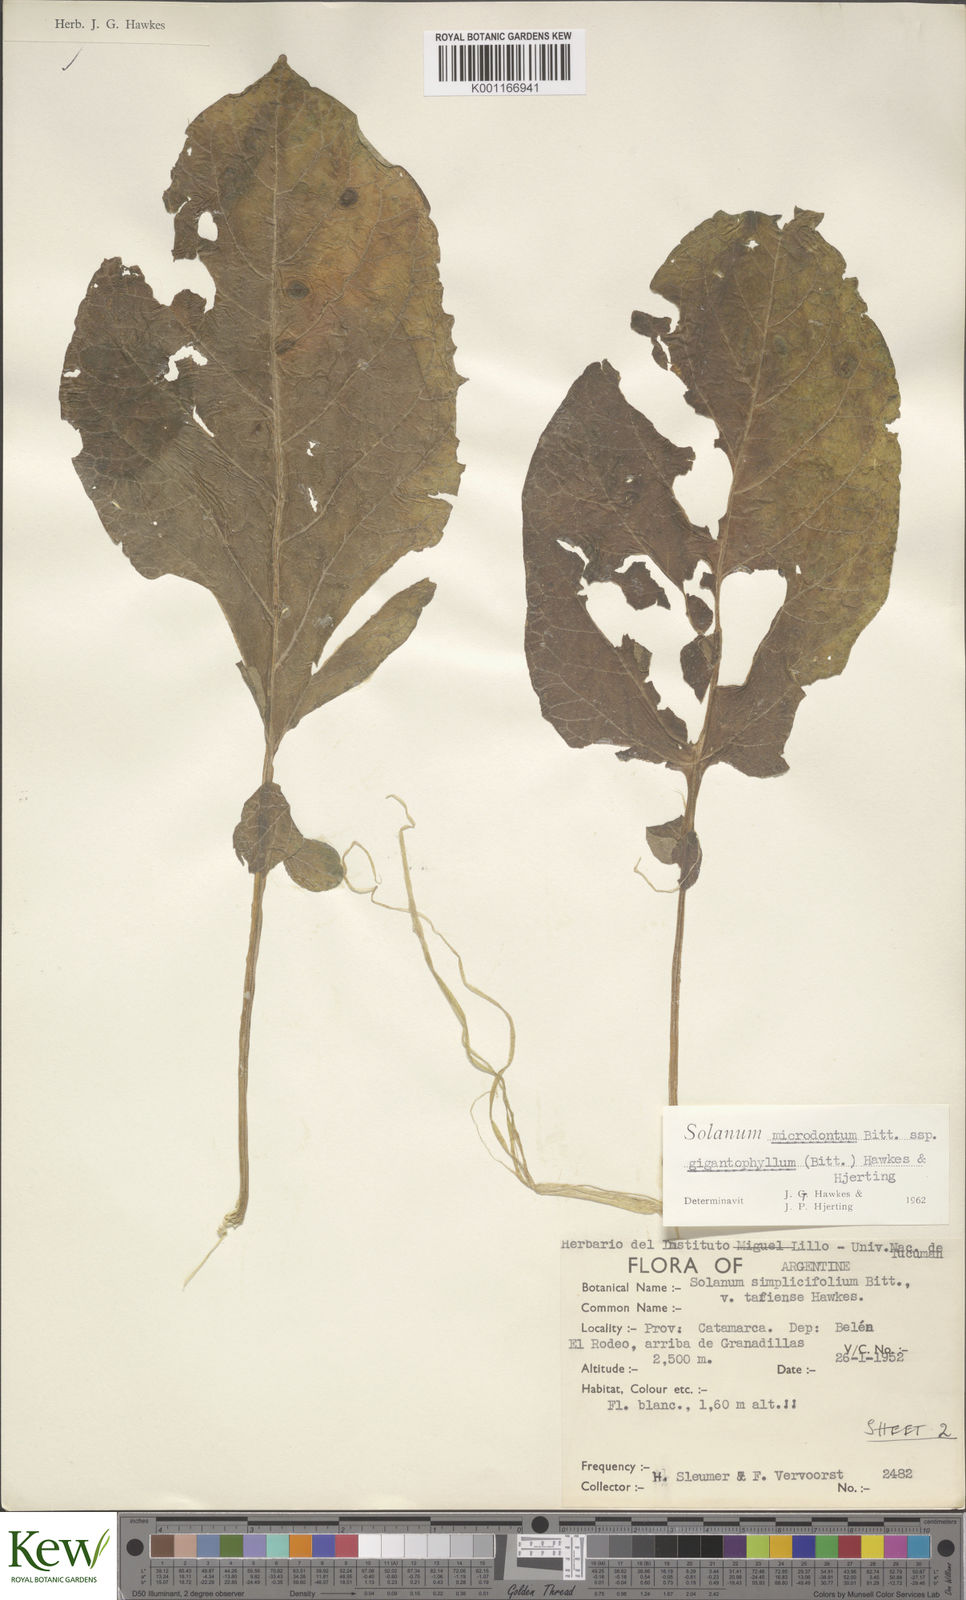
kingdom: Plantae
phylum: Tracheophyta
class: Magnoliopsida
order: Solanales
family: Solanaceae
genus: Solanum
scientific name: Solanum microdontum
